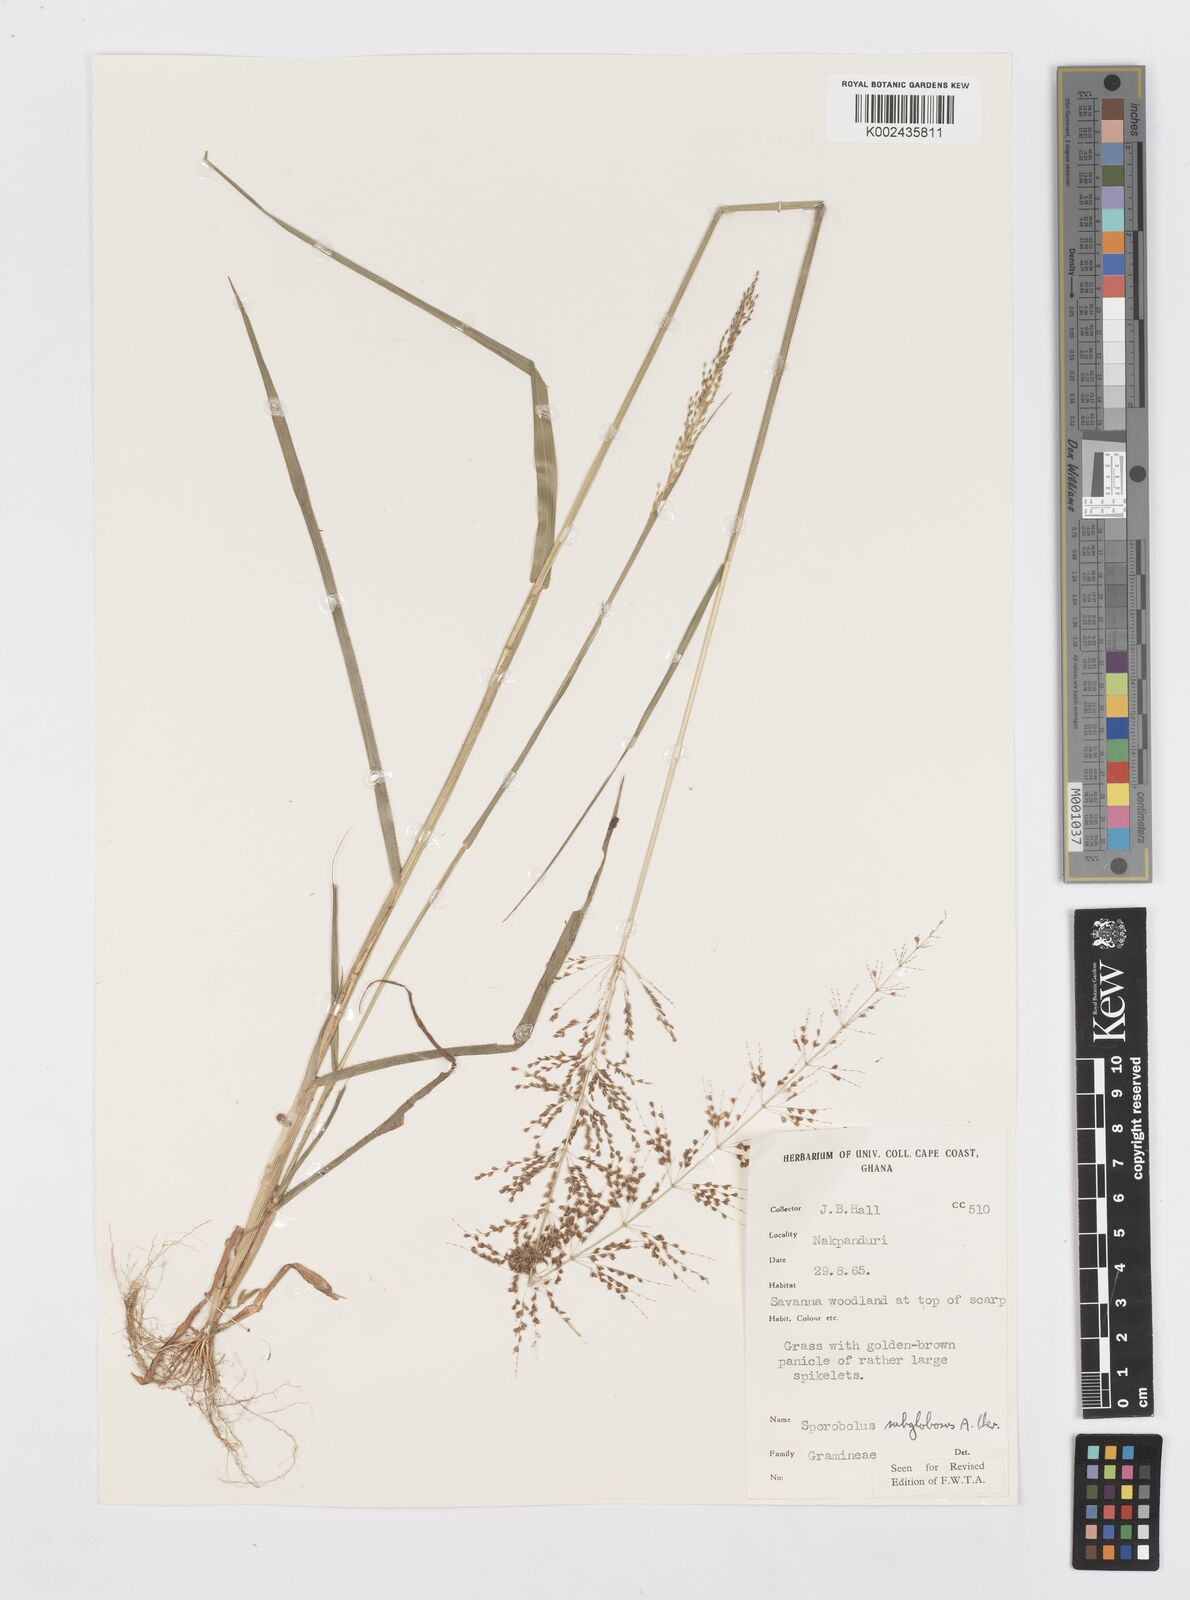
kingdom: Plantae
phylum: Tracheophyta
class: Liliopsida
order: Poales
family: Poaceae
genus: Sporobolus
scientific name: Sporobolus subglobosus
